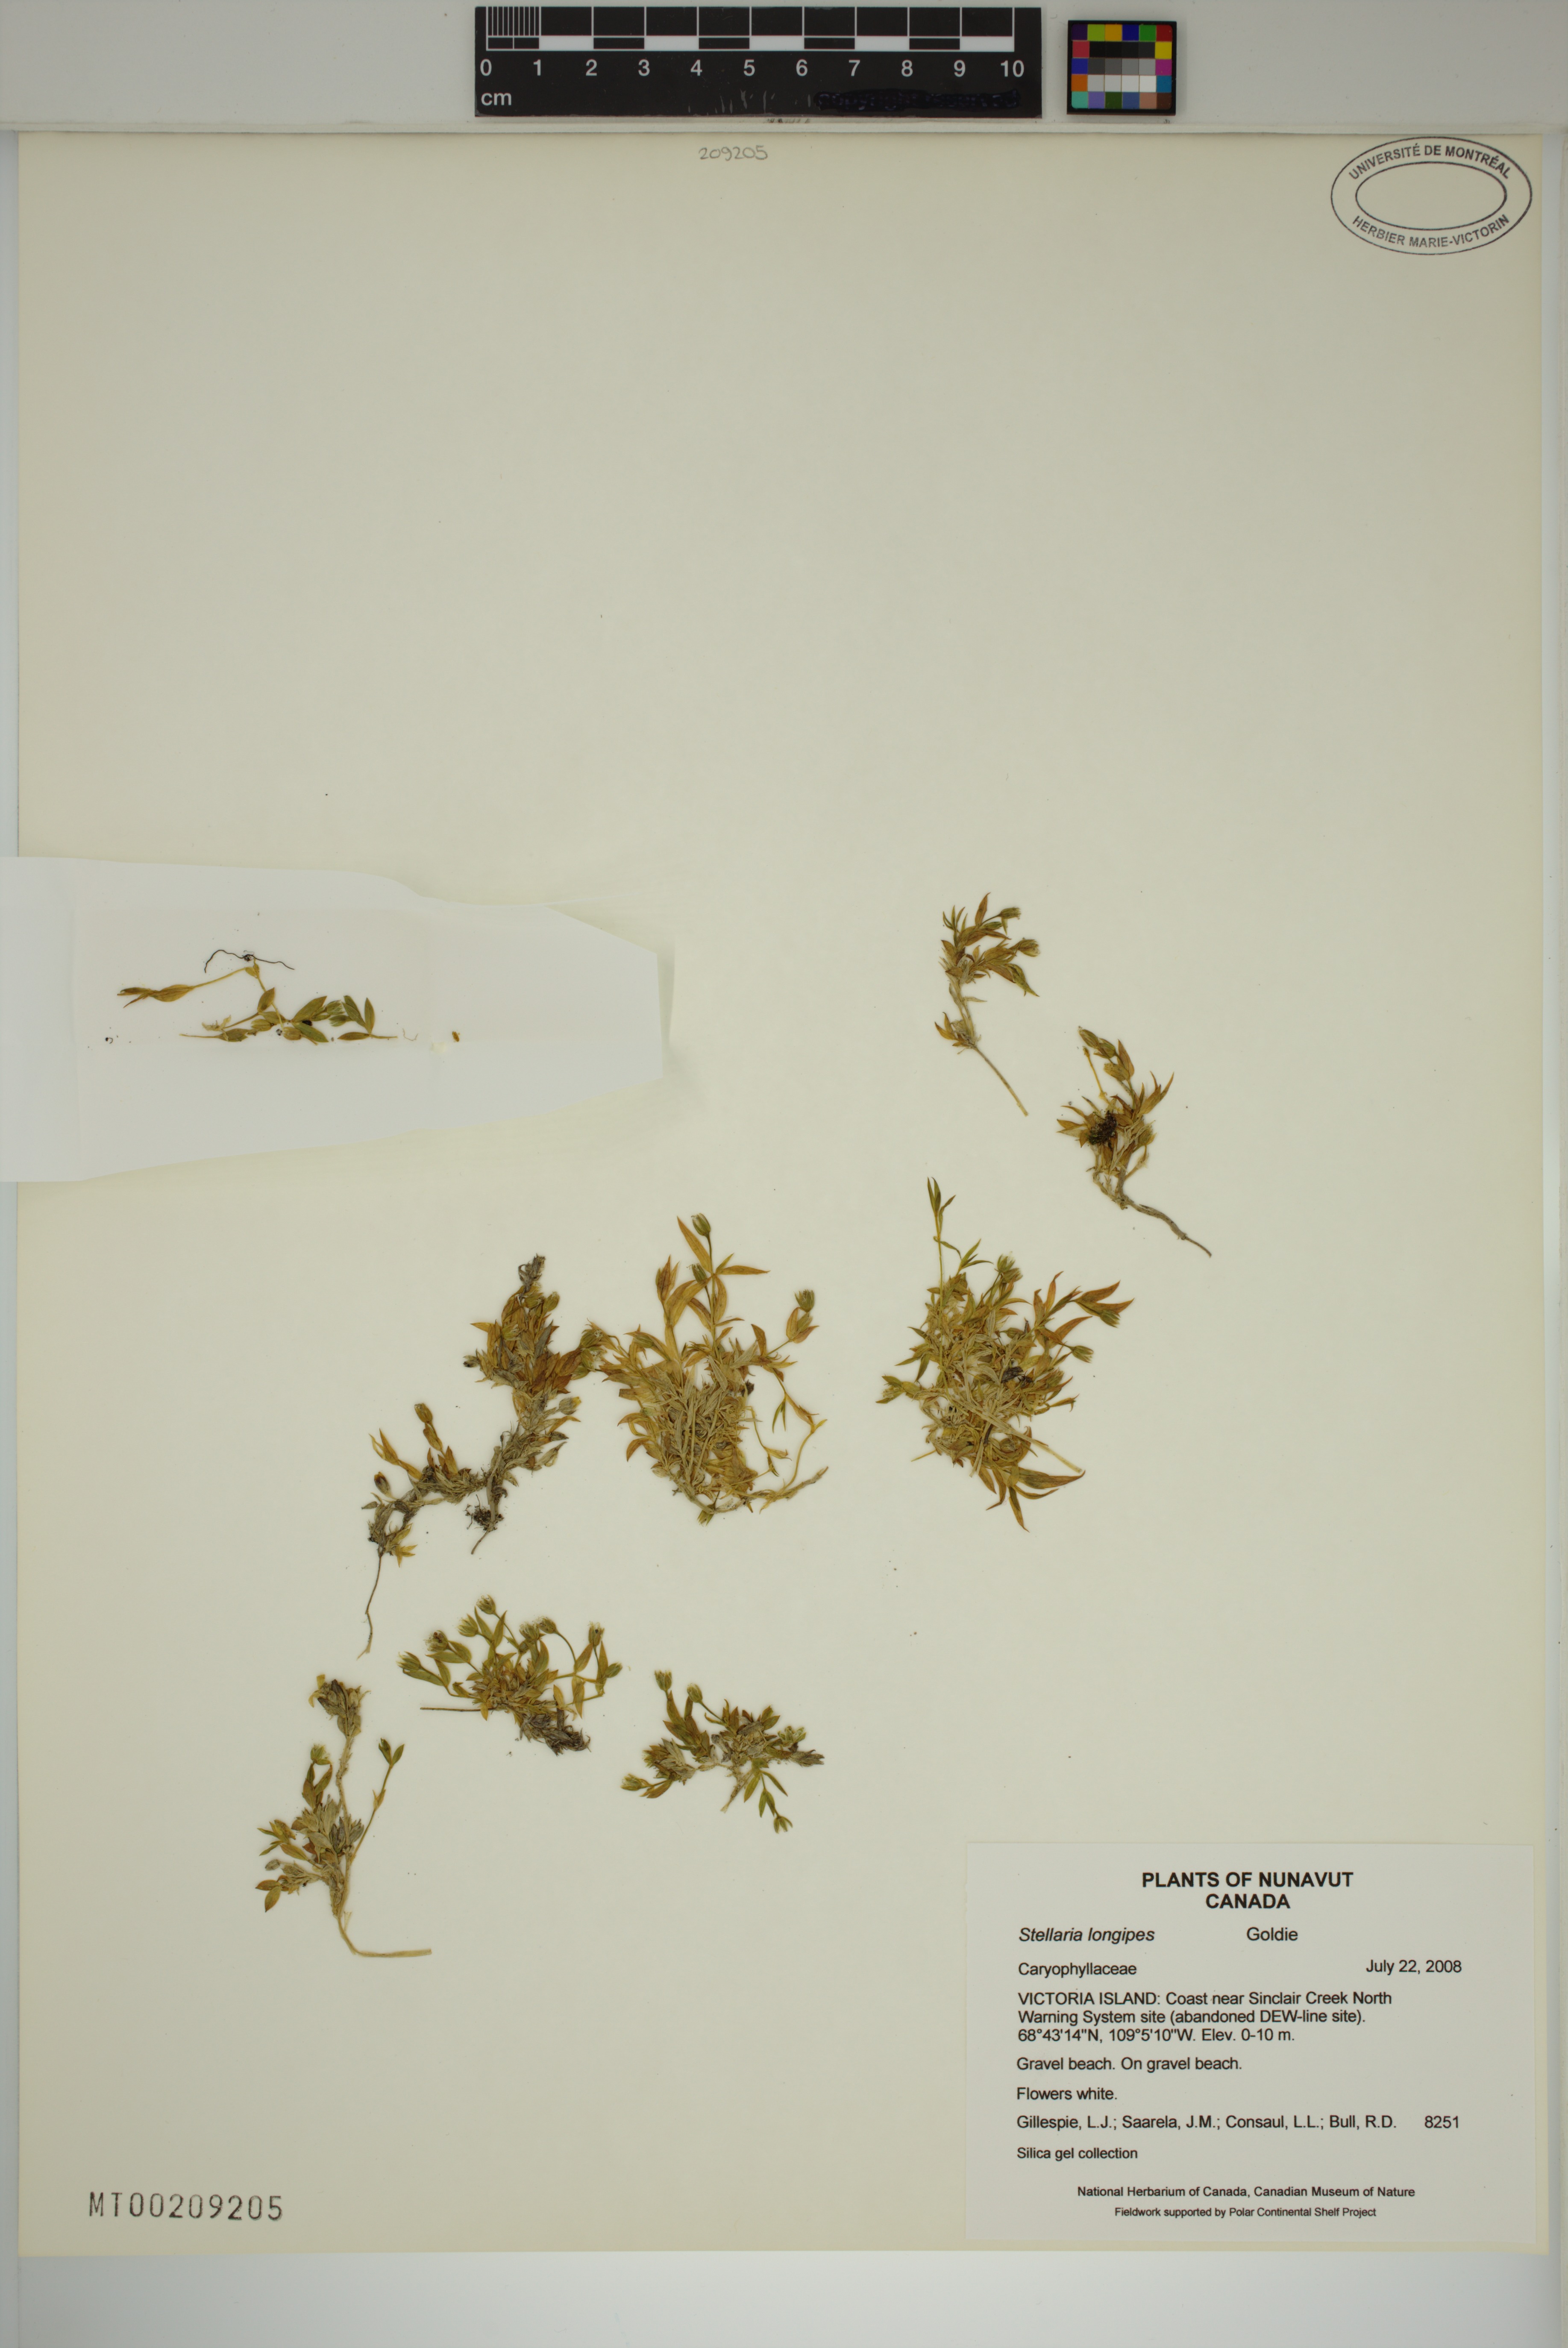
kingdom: Plantae
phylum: Tracheophyta
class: Magnoliopsida
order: Caryophyllales
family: Caryophyllaceae
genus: Stellaria
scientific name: Stellaria longipes
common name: Goldie's starwort
